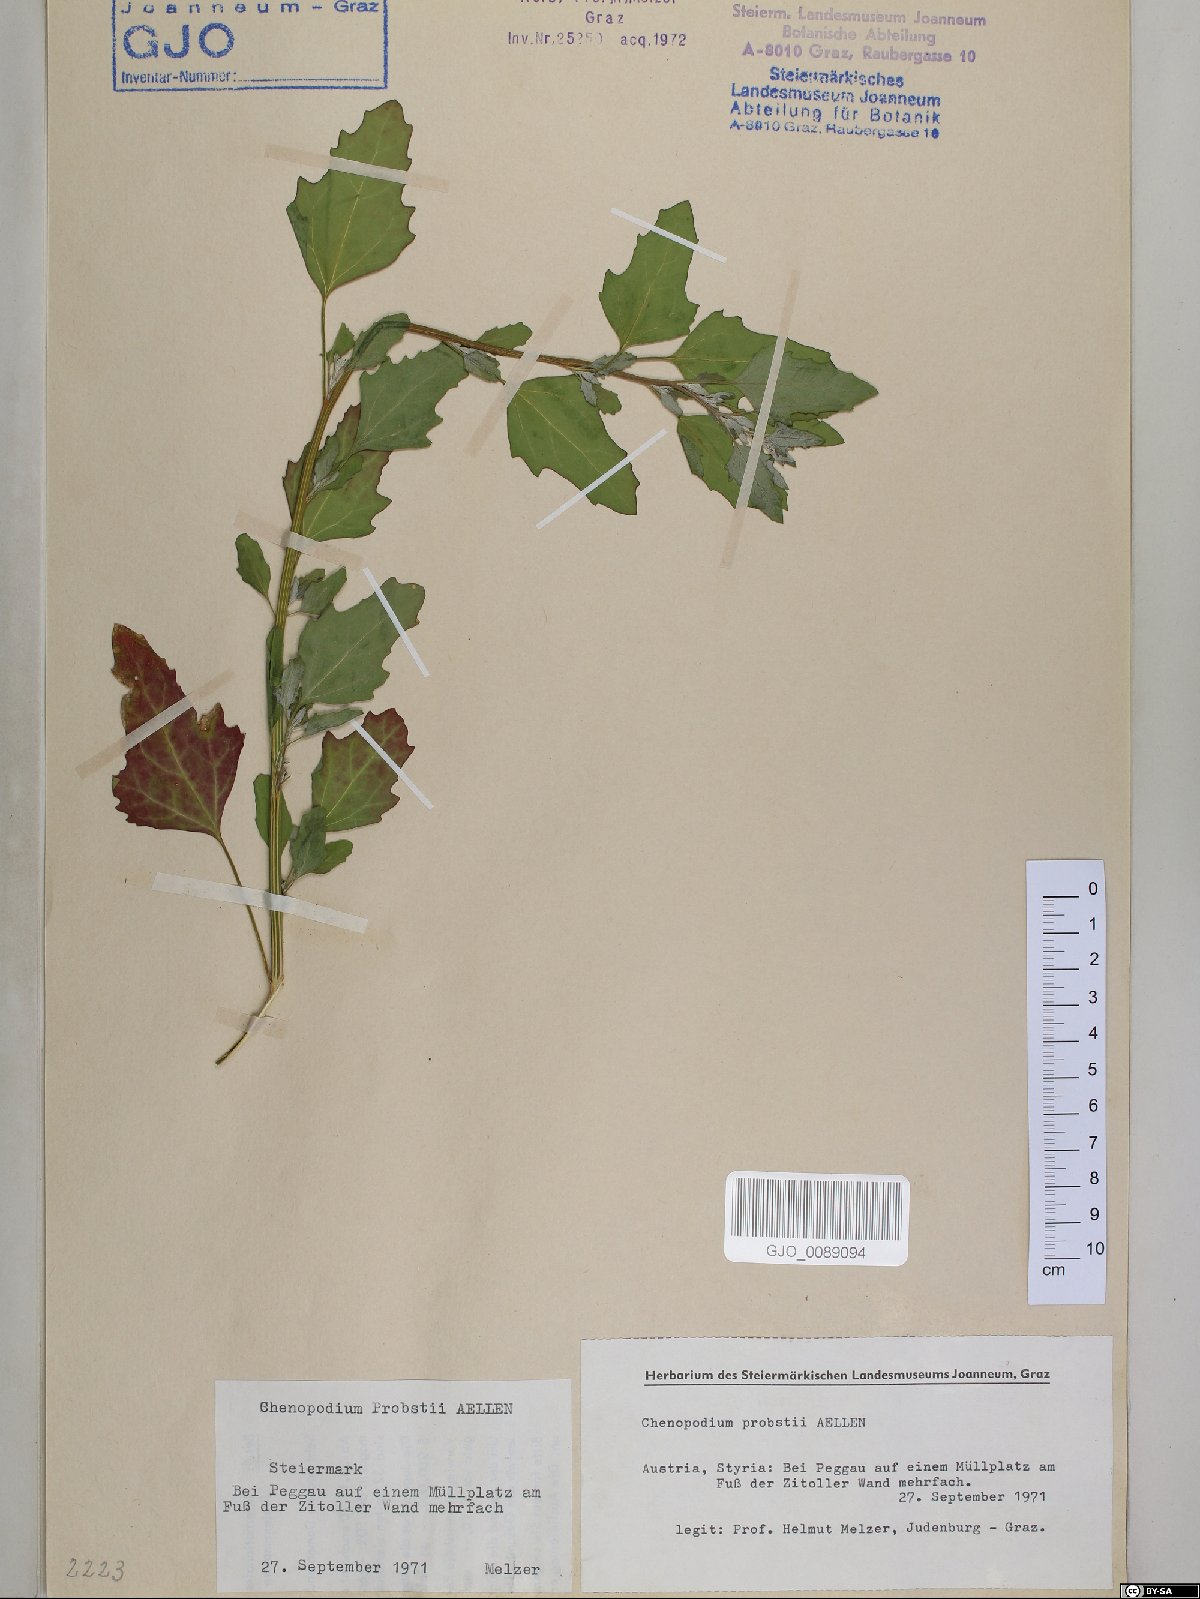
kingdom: Plantae
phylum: Tracheophyta
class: Magnoliopsida
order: Caryophyllales
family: Amaranthaceae
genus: Chenopodium
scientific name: Chenopodium probstii
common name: Probst's goosefoot
